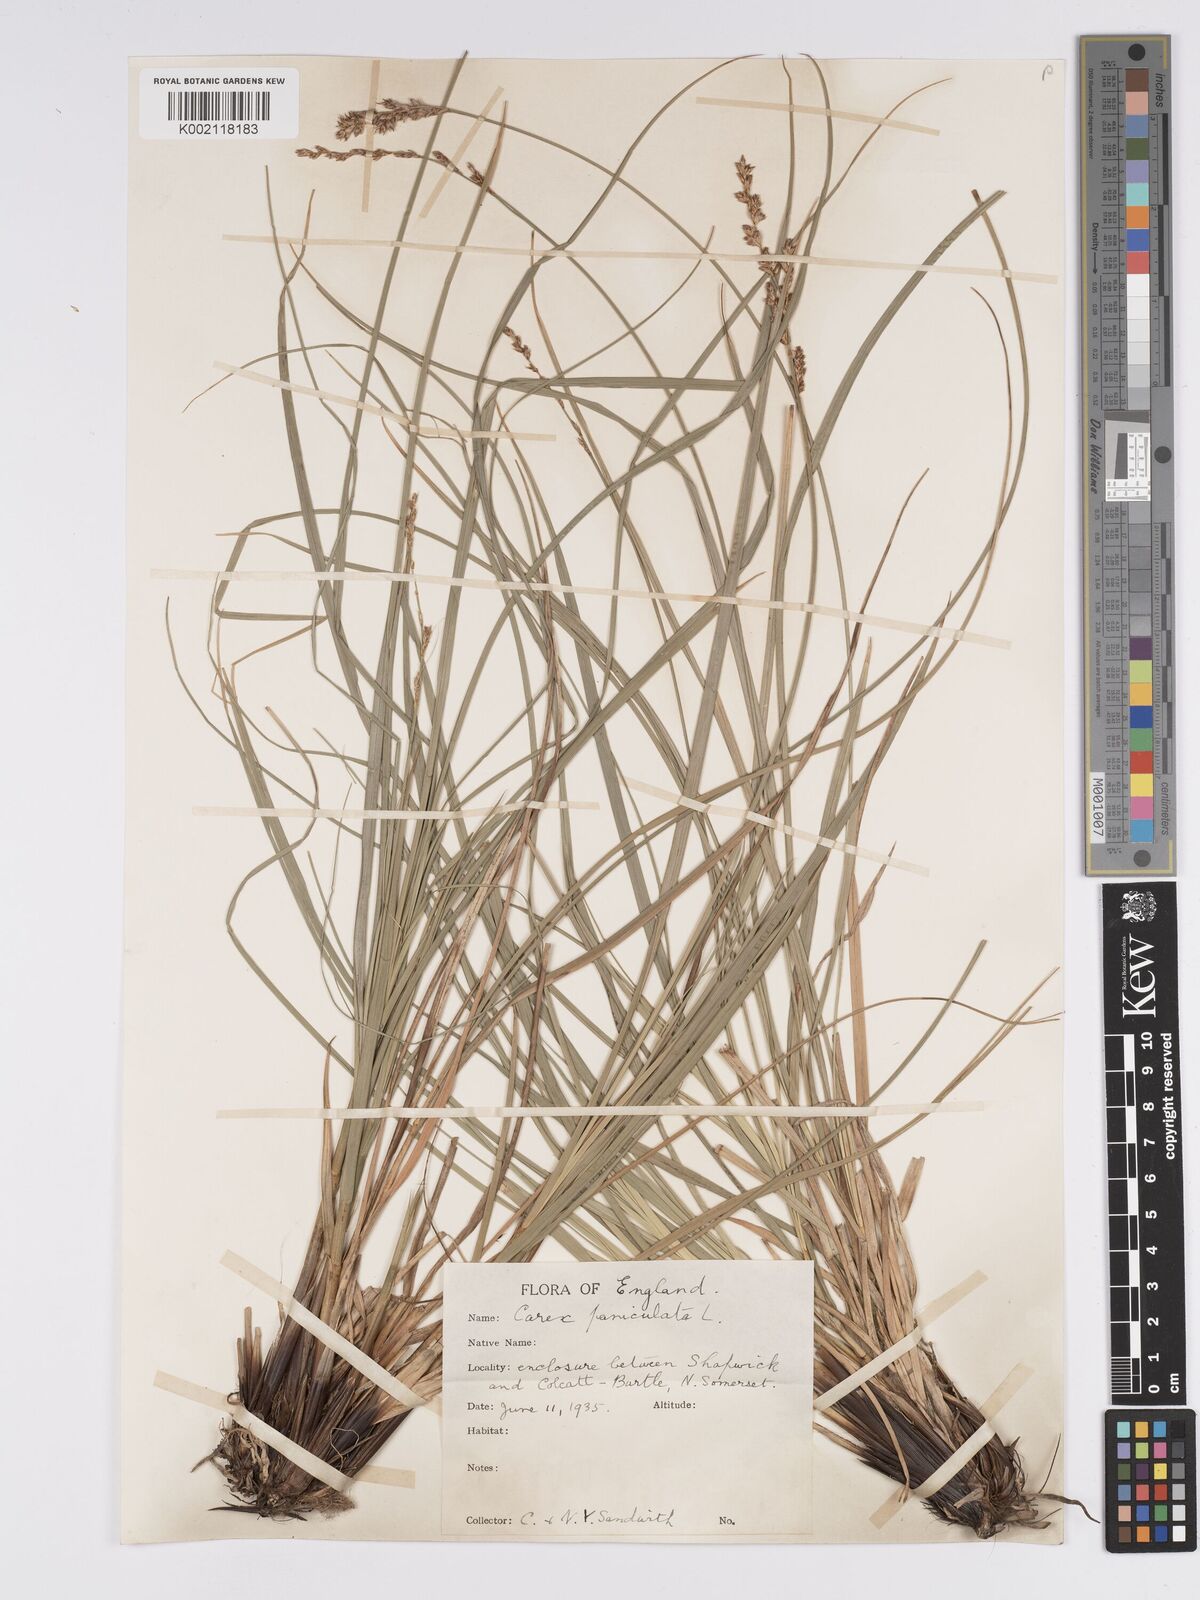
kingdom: Plantae
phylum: Tracheophyta
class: Liliopsida
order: Poales
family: Cyperaceae
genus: Carex
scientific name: Carex paniculata
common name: Greater tussock-sedge
